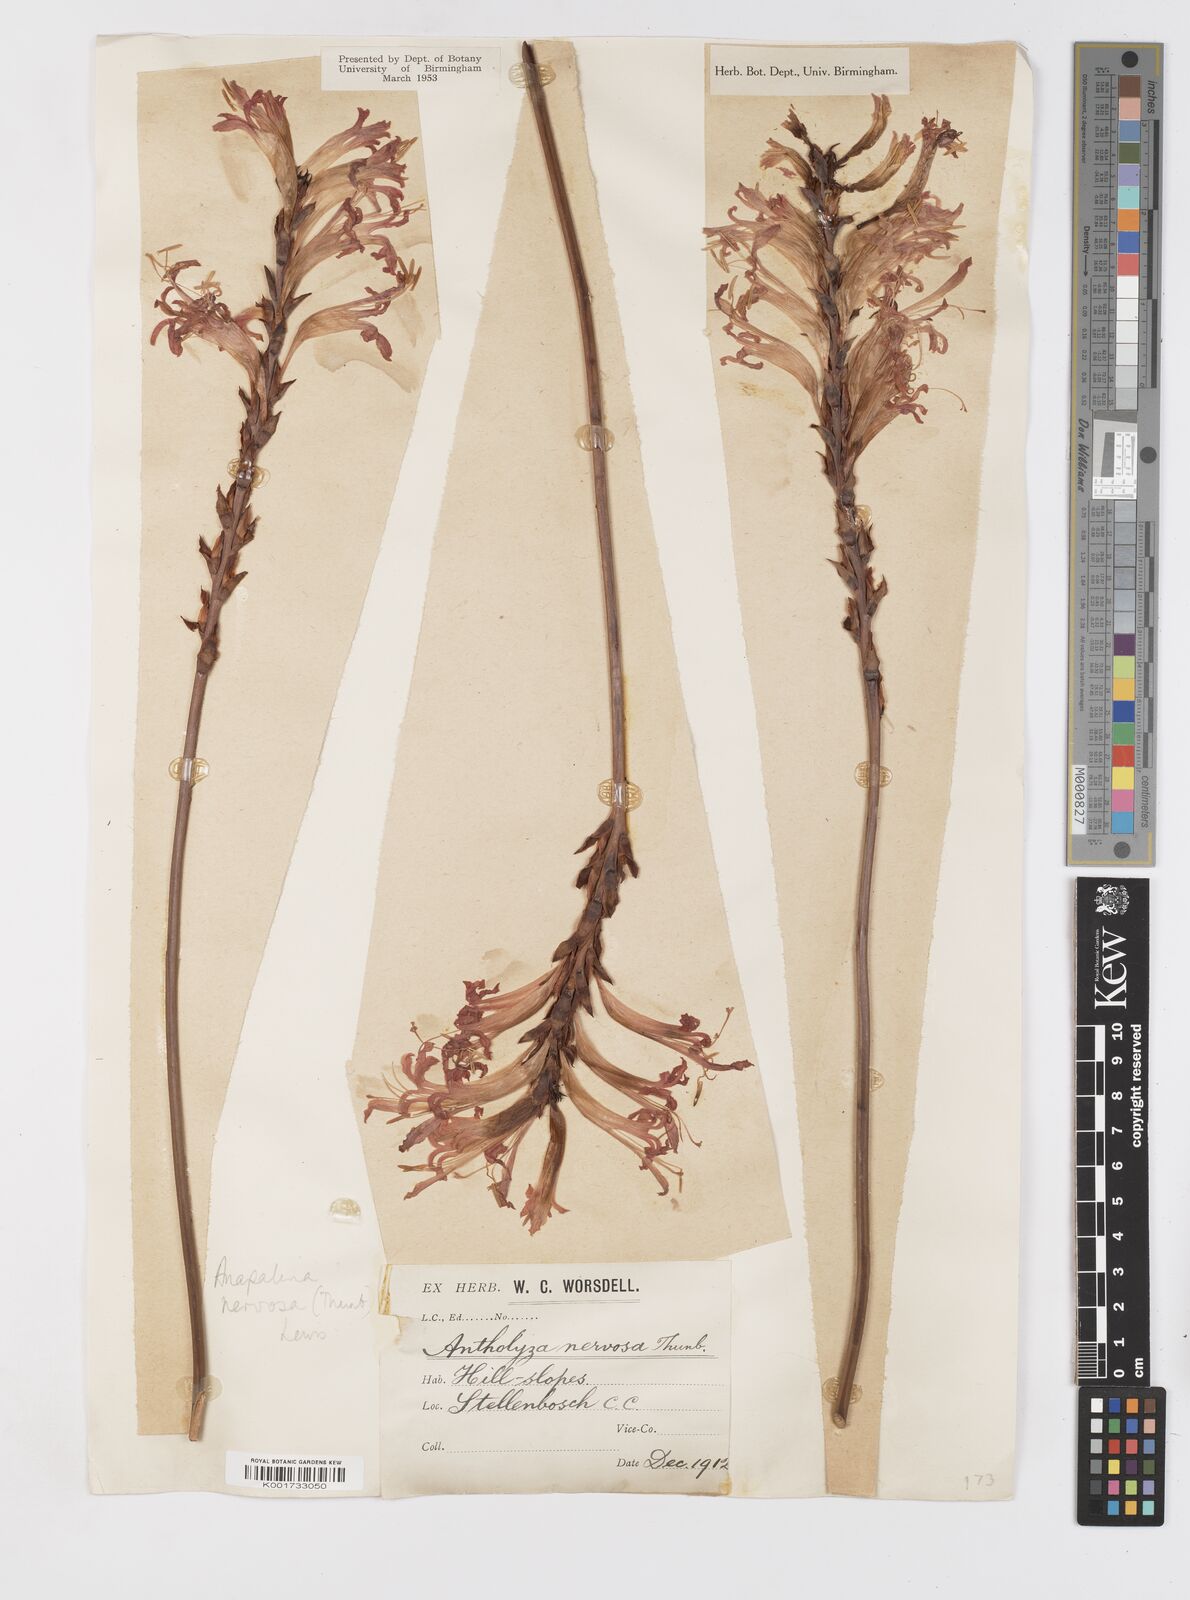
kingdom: Plantae
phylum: Tracheophyta
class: Liliopsida
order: Asparagales
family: Iridaceae
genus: Tritoniopsis
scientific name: Tritoniopsis nervosa
